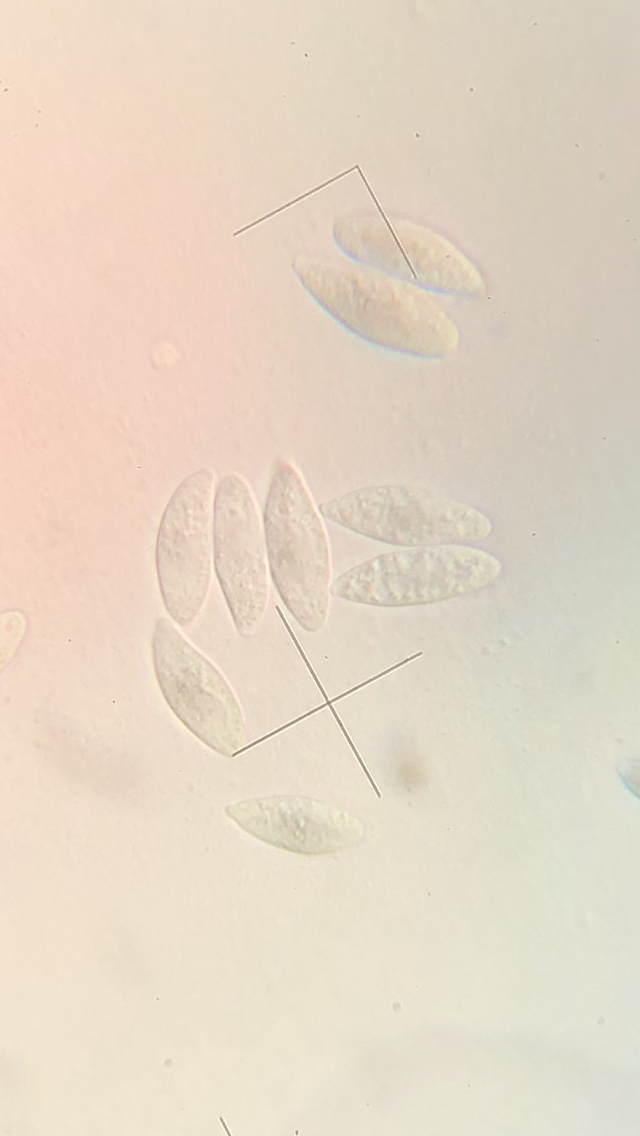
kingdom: Fungi
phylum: Basidiomycota
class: Agaricomycetes
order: Agaricales
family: Typhulaceae
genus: Typhula
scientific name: Typhula contorta
